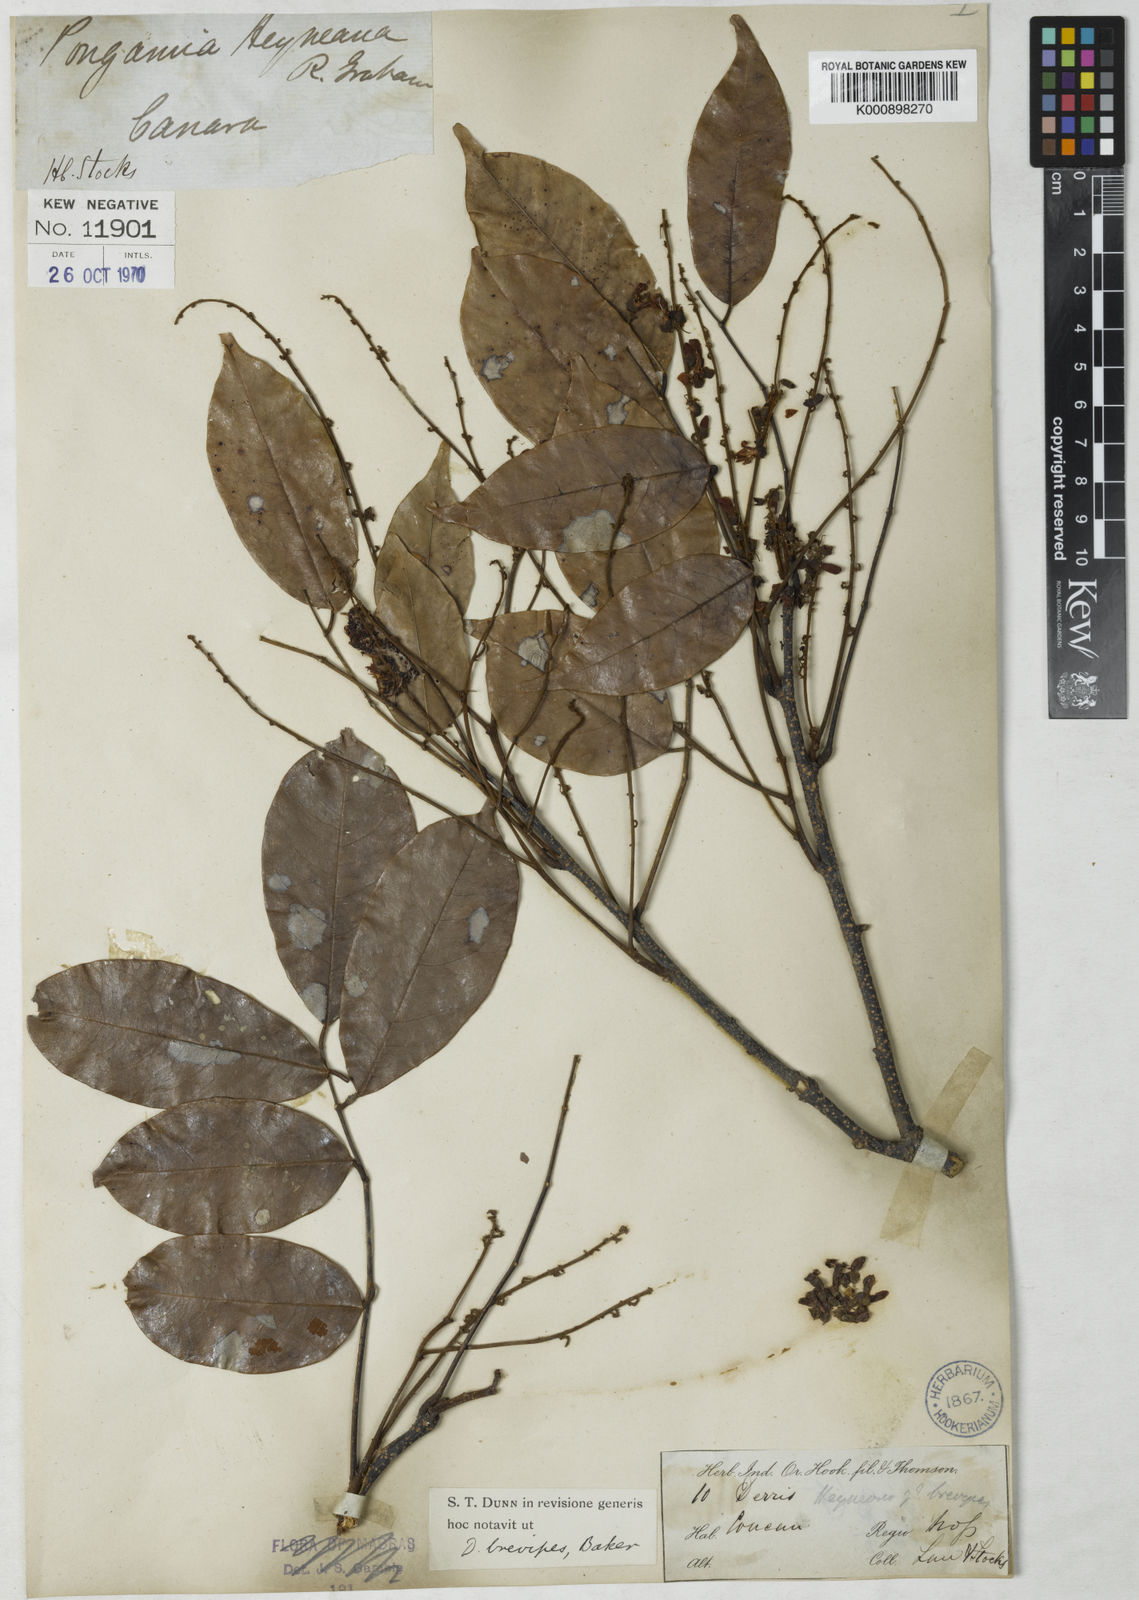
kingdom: Plantae
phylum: Tracheophyta
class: Magnoliopsida
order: Fabales
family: Fabaceae
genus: Derris
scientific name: Derris
